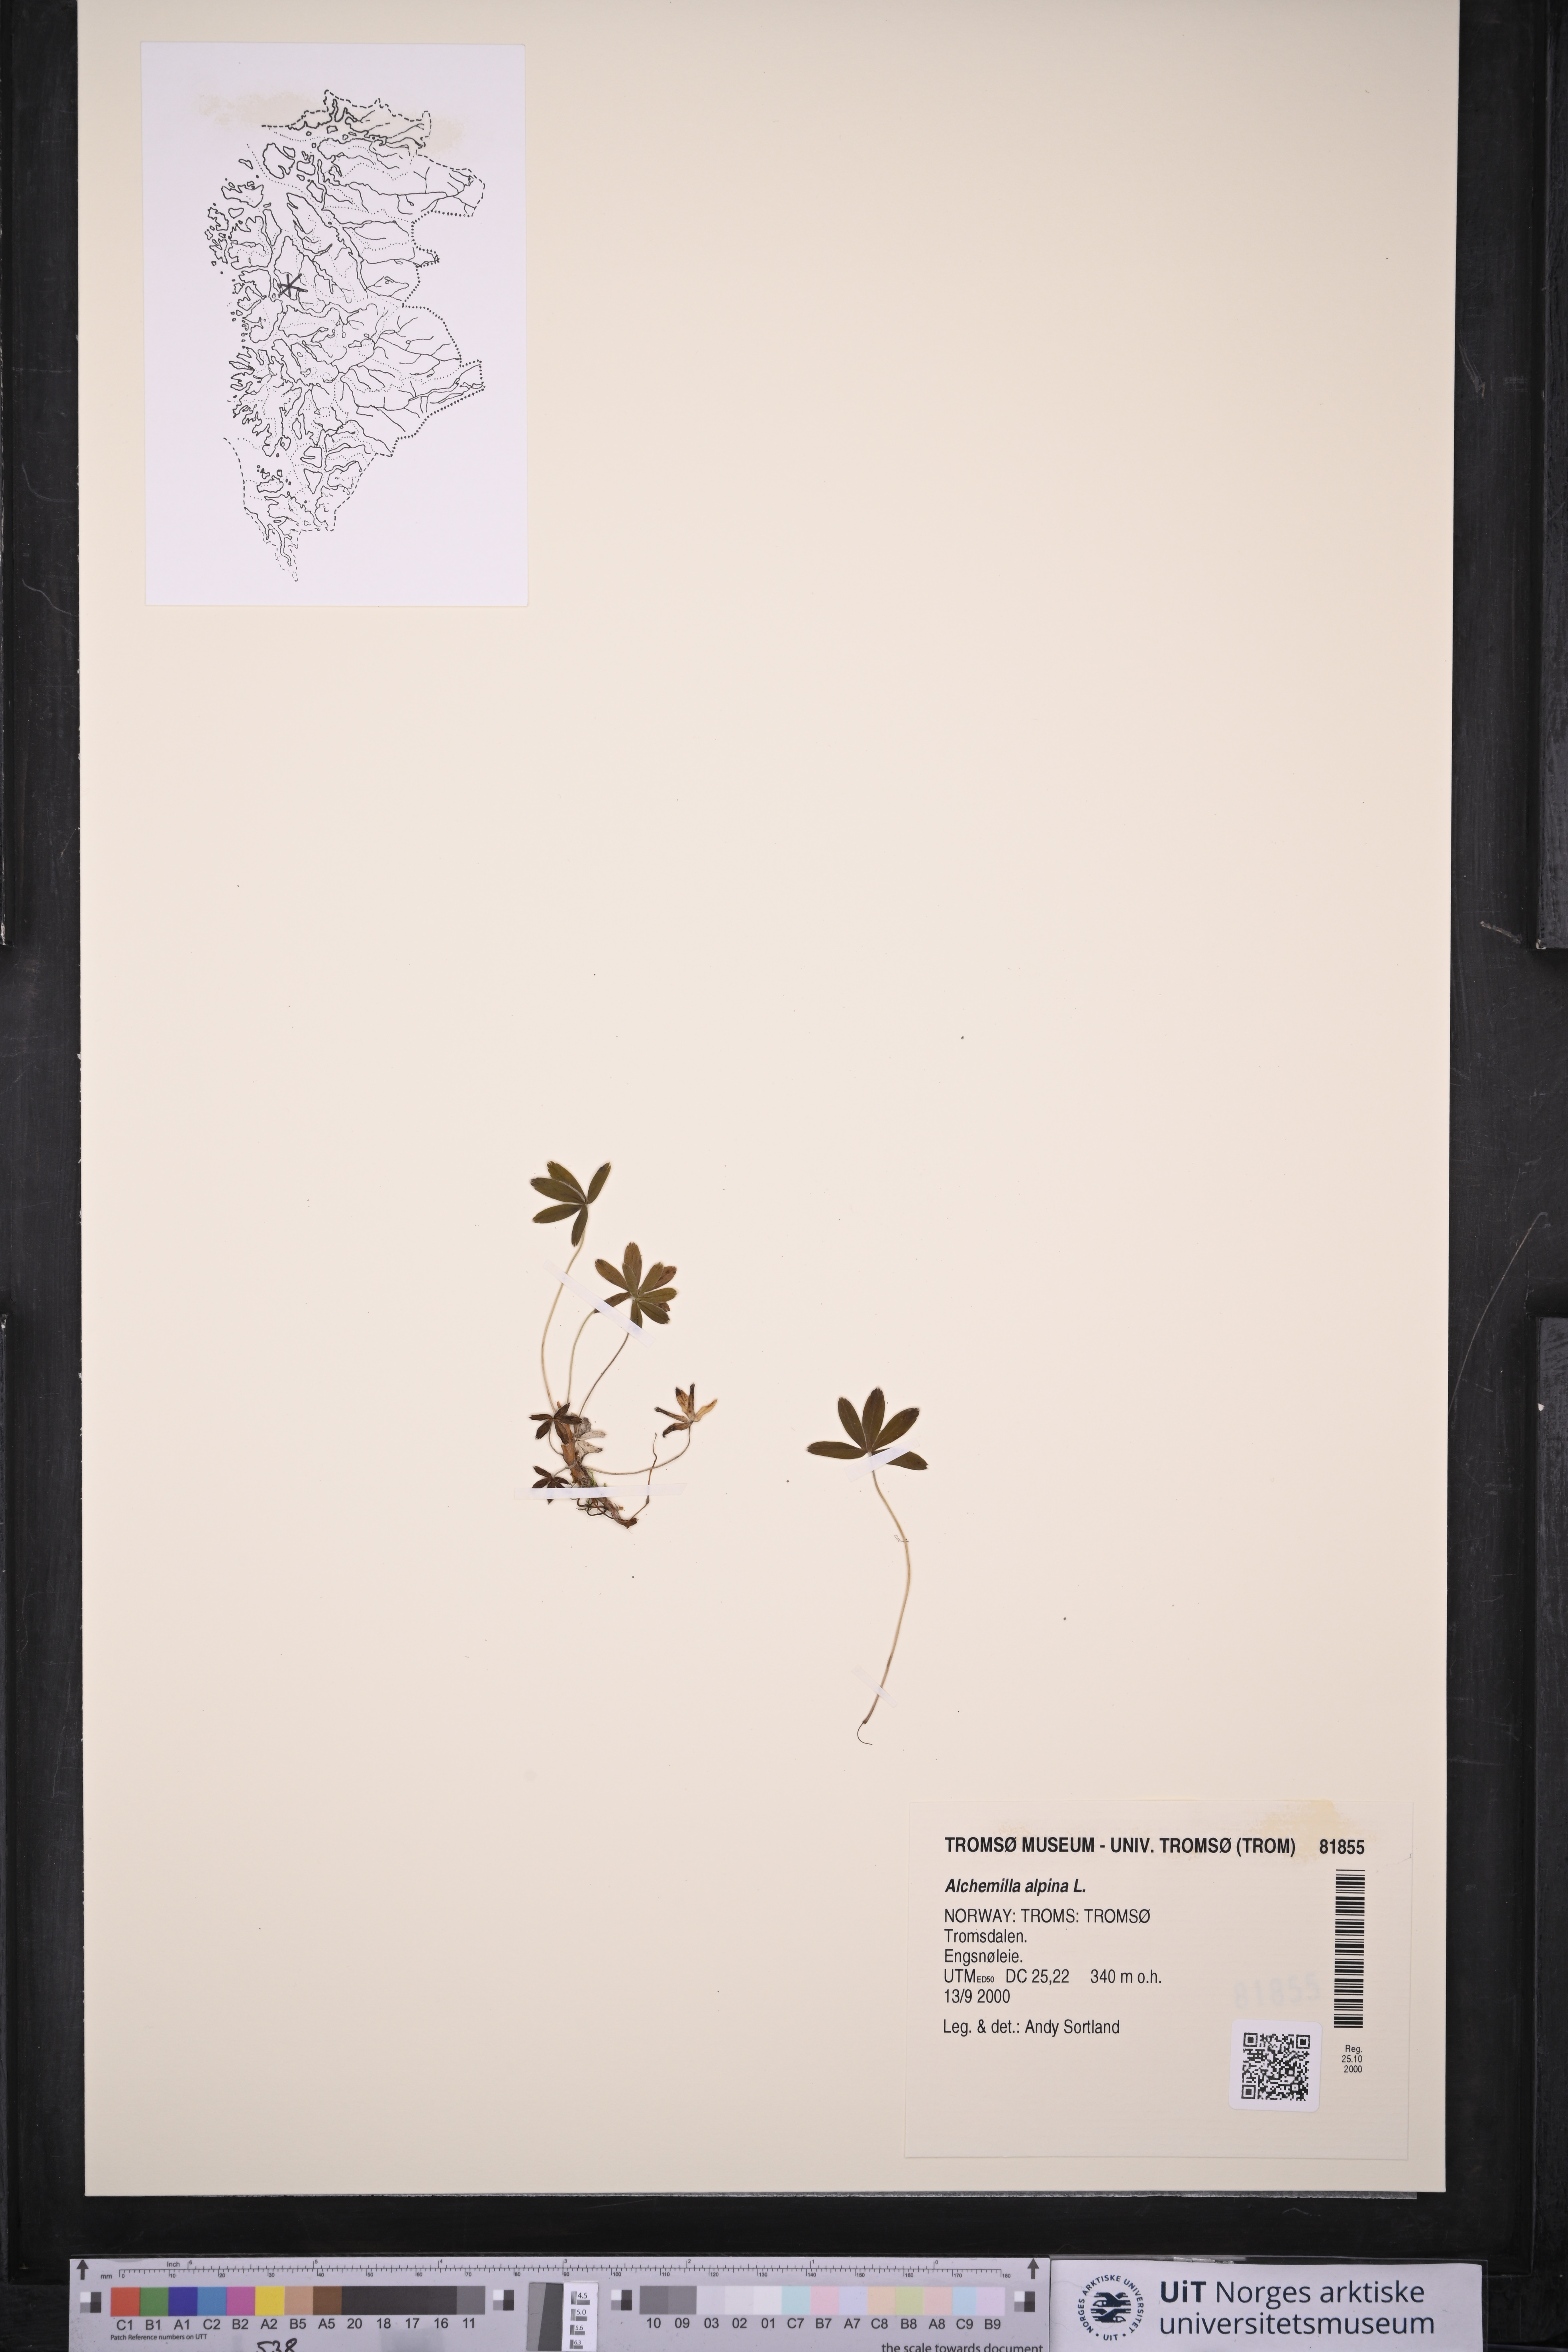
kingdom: Plantae
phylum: Tracheophyta
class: Magnoliopsida
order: Rosales
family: Rosaceae
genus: Alchemilla
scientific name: Alchemilla alpina
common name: Alpine lady's-mantle
